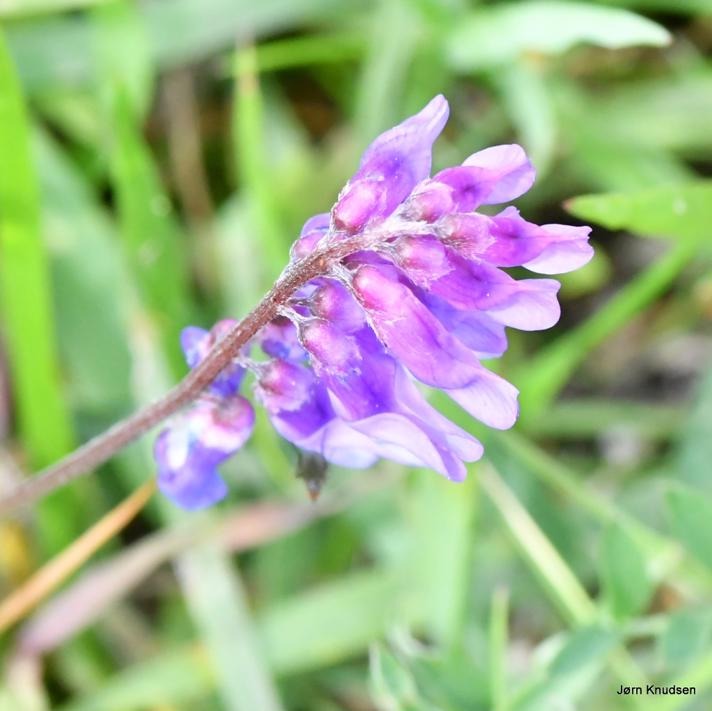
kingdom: Plantae
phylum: Tracheophyta
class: Magnoliopsida
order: Fabales
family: Fabaceae
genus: Vicia
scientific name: Vicia cracca
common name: Muse-vikke
